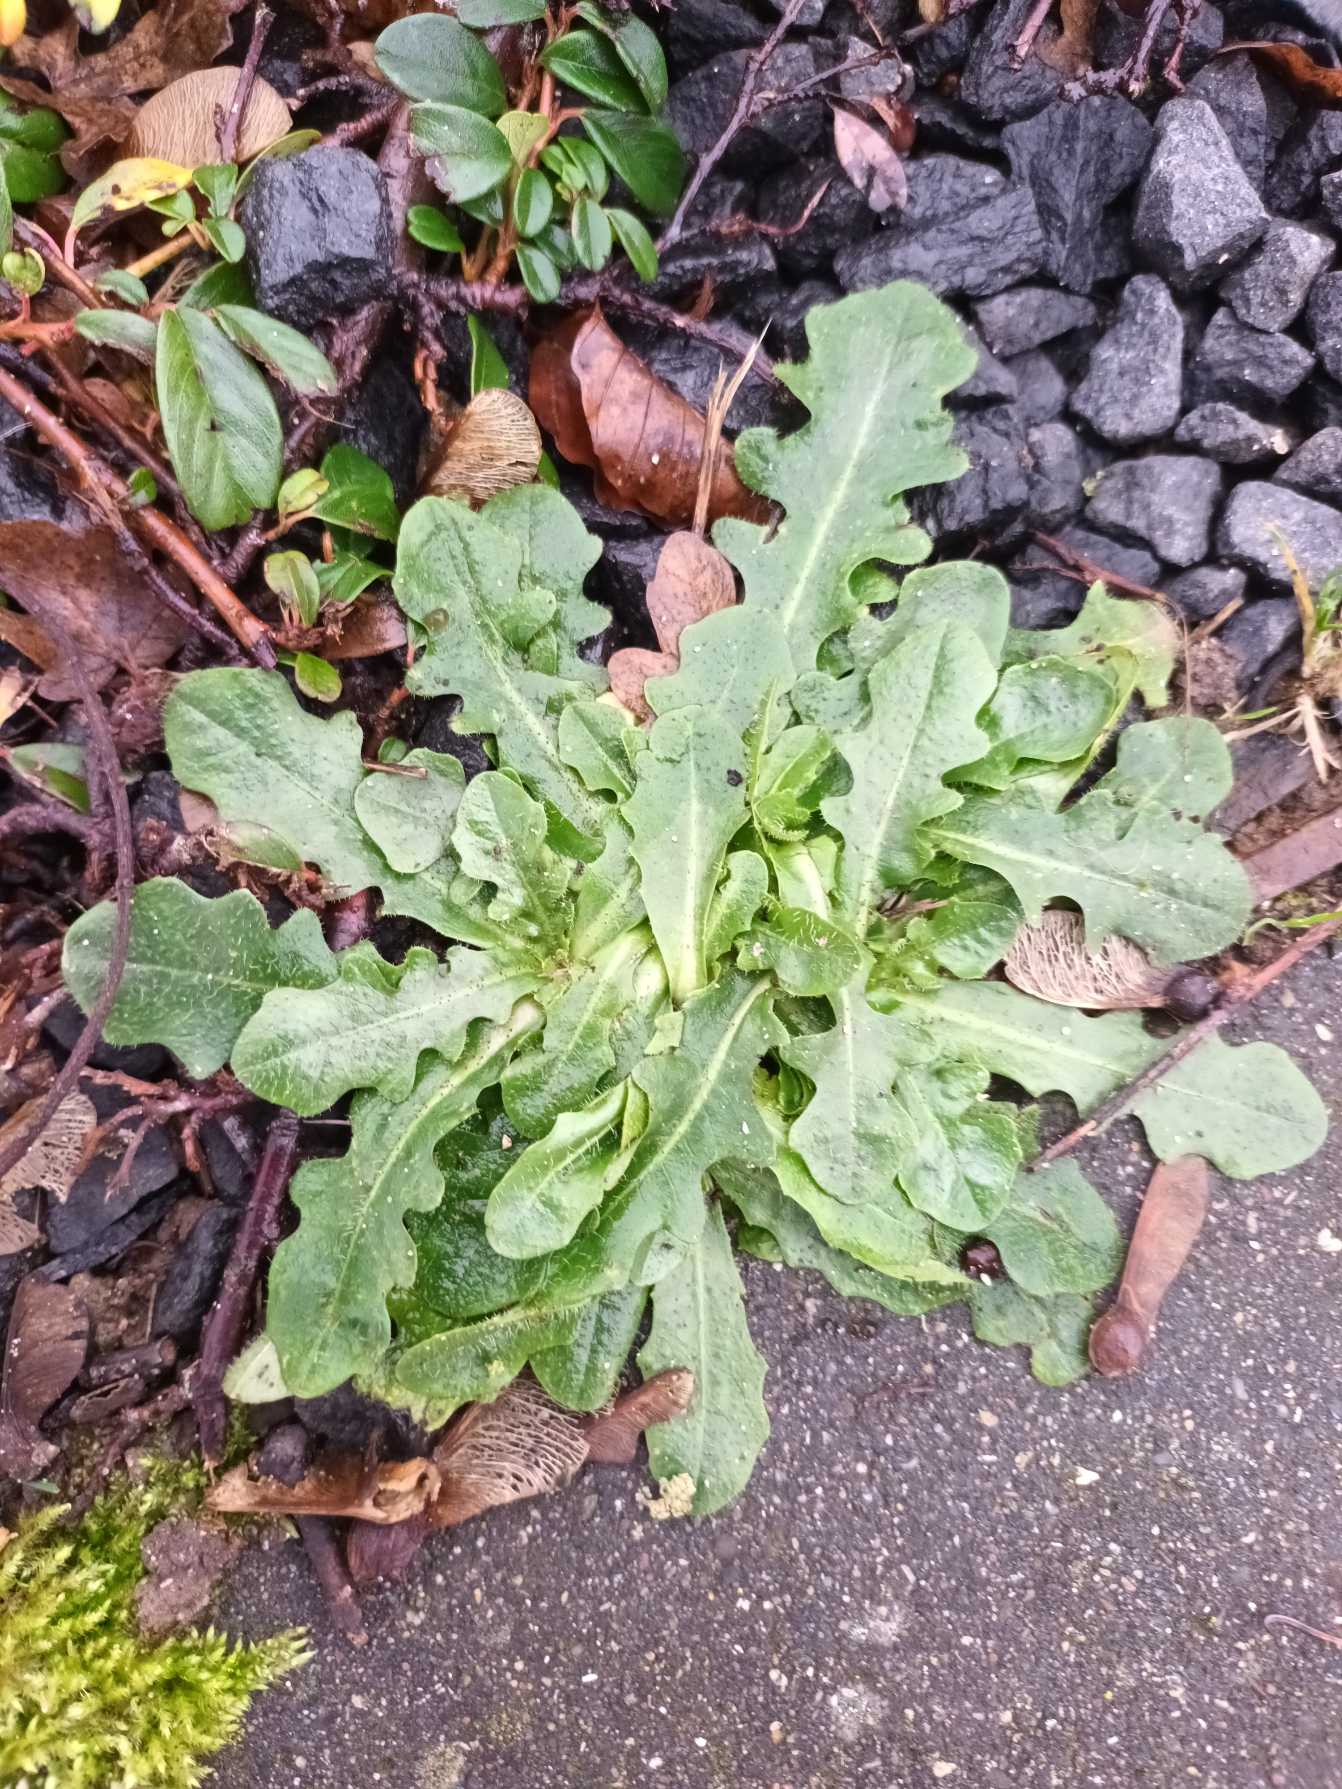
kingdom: Plantae
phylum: Tracheophyta
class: Magnoliopsida
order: Asterales
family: Asteraceae
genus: Hypochaeris
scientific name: Hypochaeris radicata
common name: Almindelig kongepen
